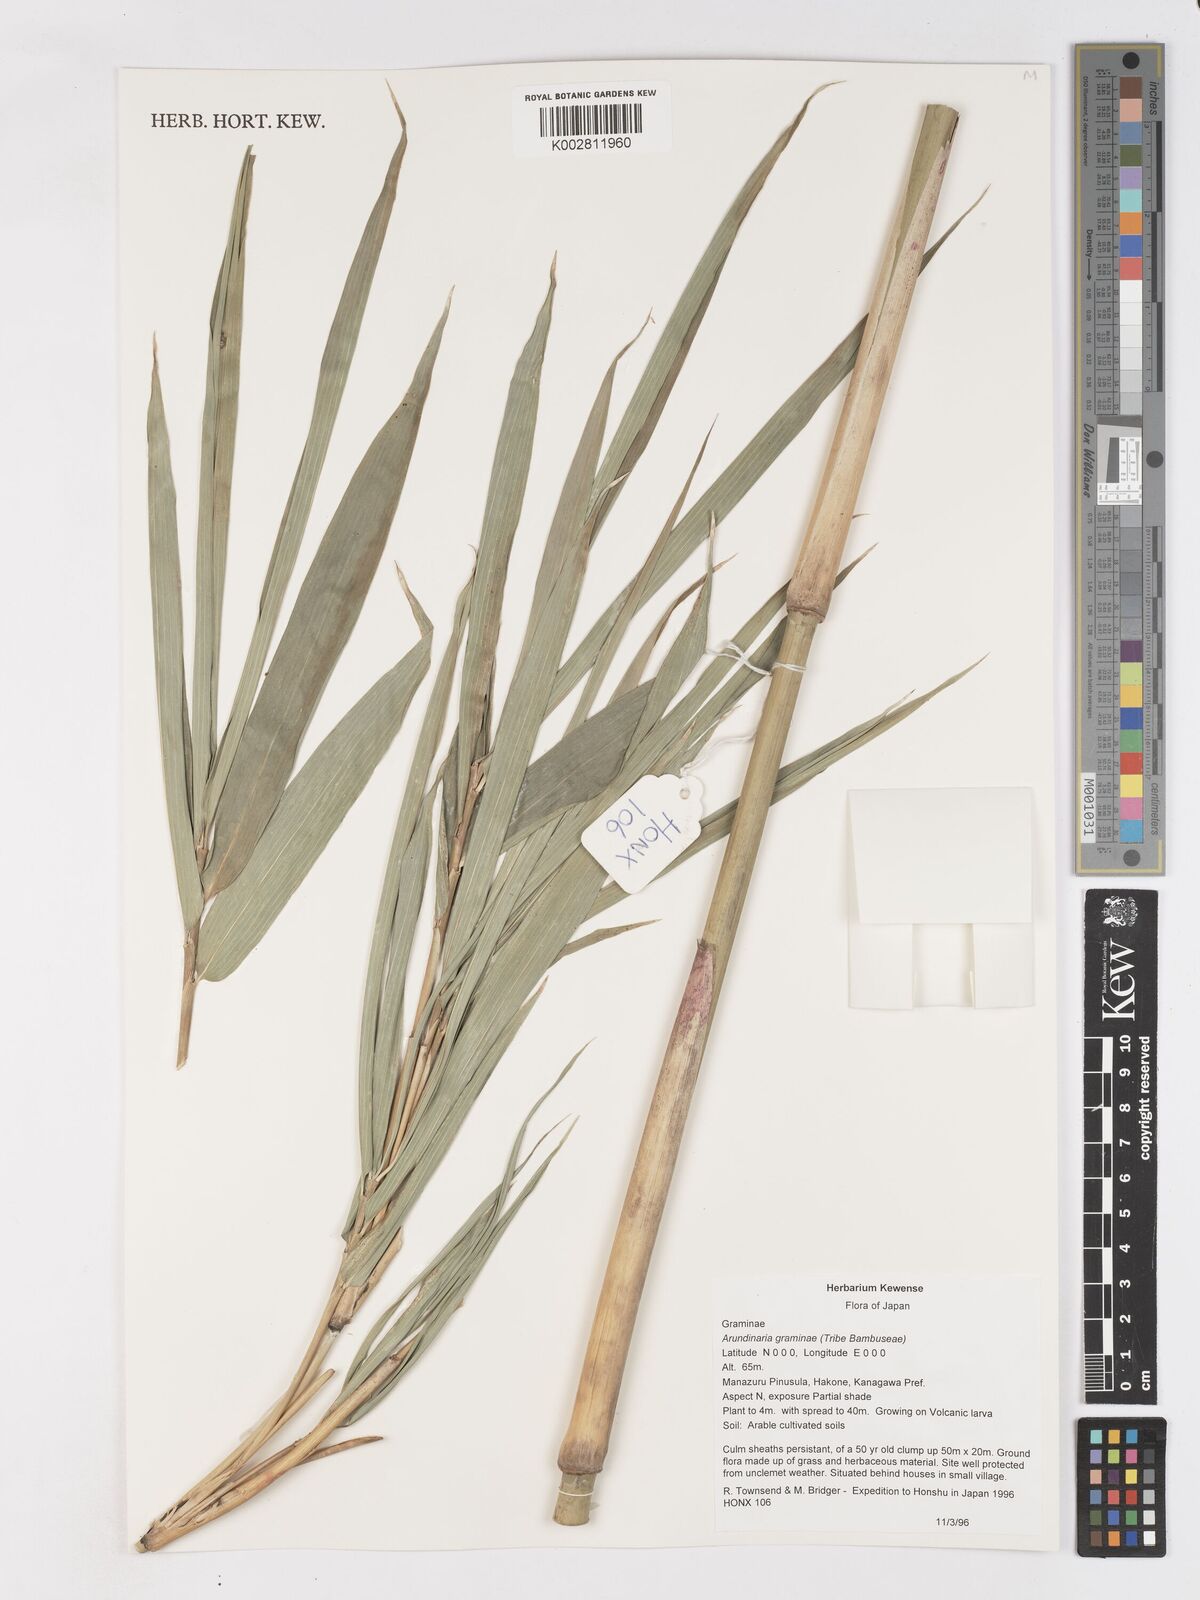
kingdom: Plantae
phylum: Tracheophyta
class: Liliopsida
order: Poales
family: Poaceae
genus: Pleioblastus
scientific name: Pleioblastus gramineus
